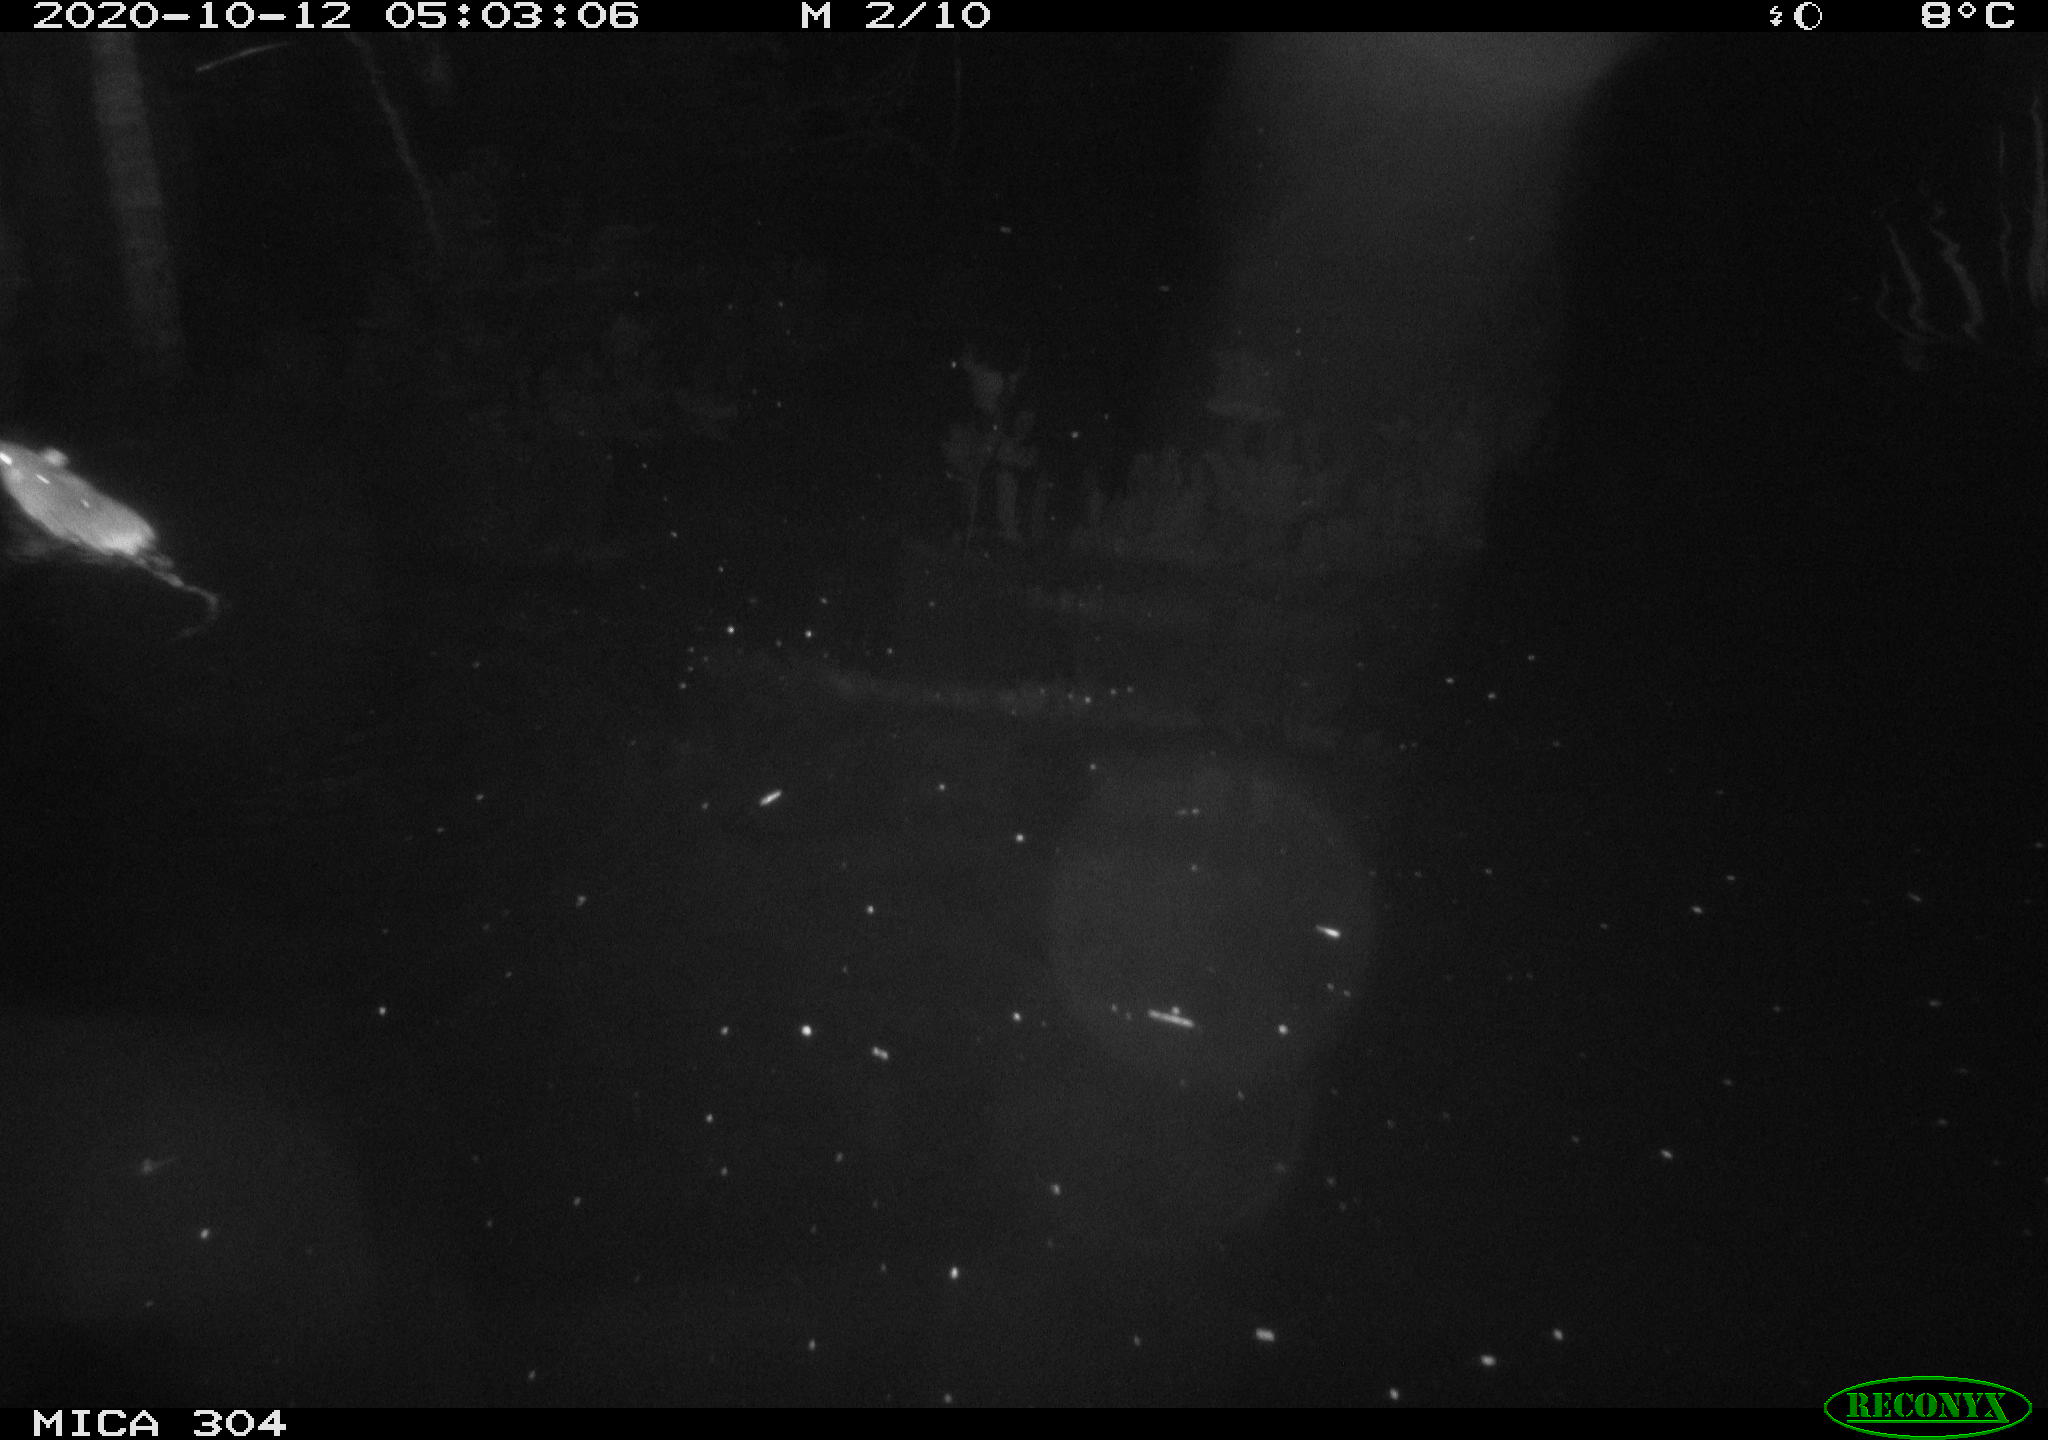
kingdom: Animalia
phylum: Chordata
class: Mammalia
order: Rodentia
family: Muridae
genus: Rattus
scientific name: Rattus norvegicus
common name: Brown rat
